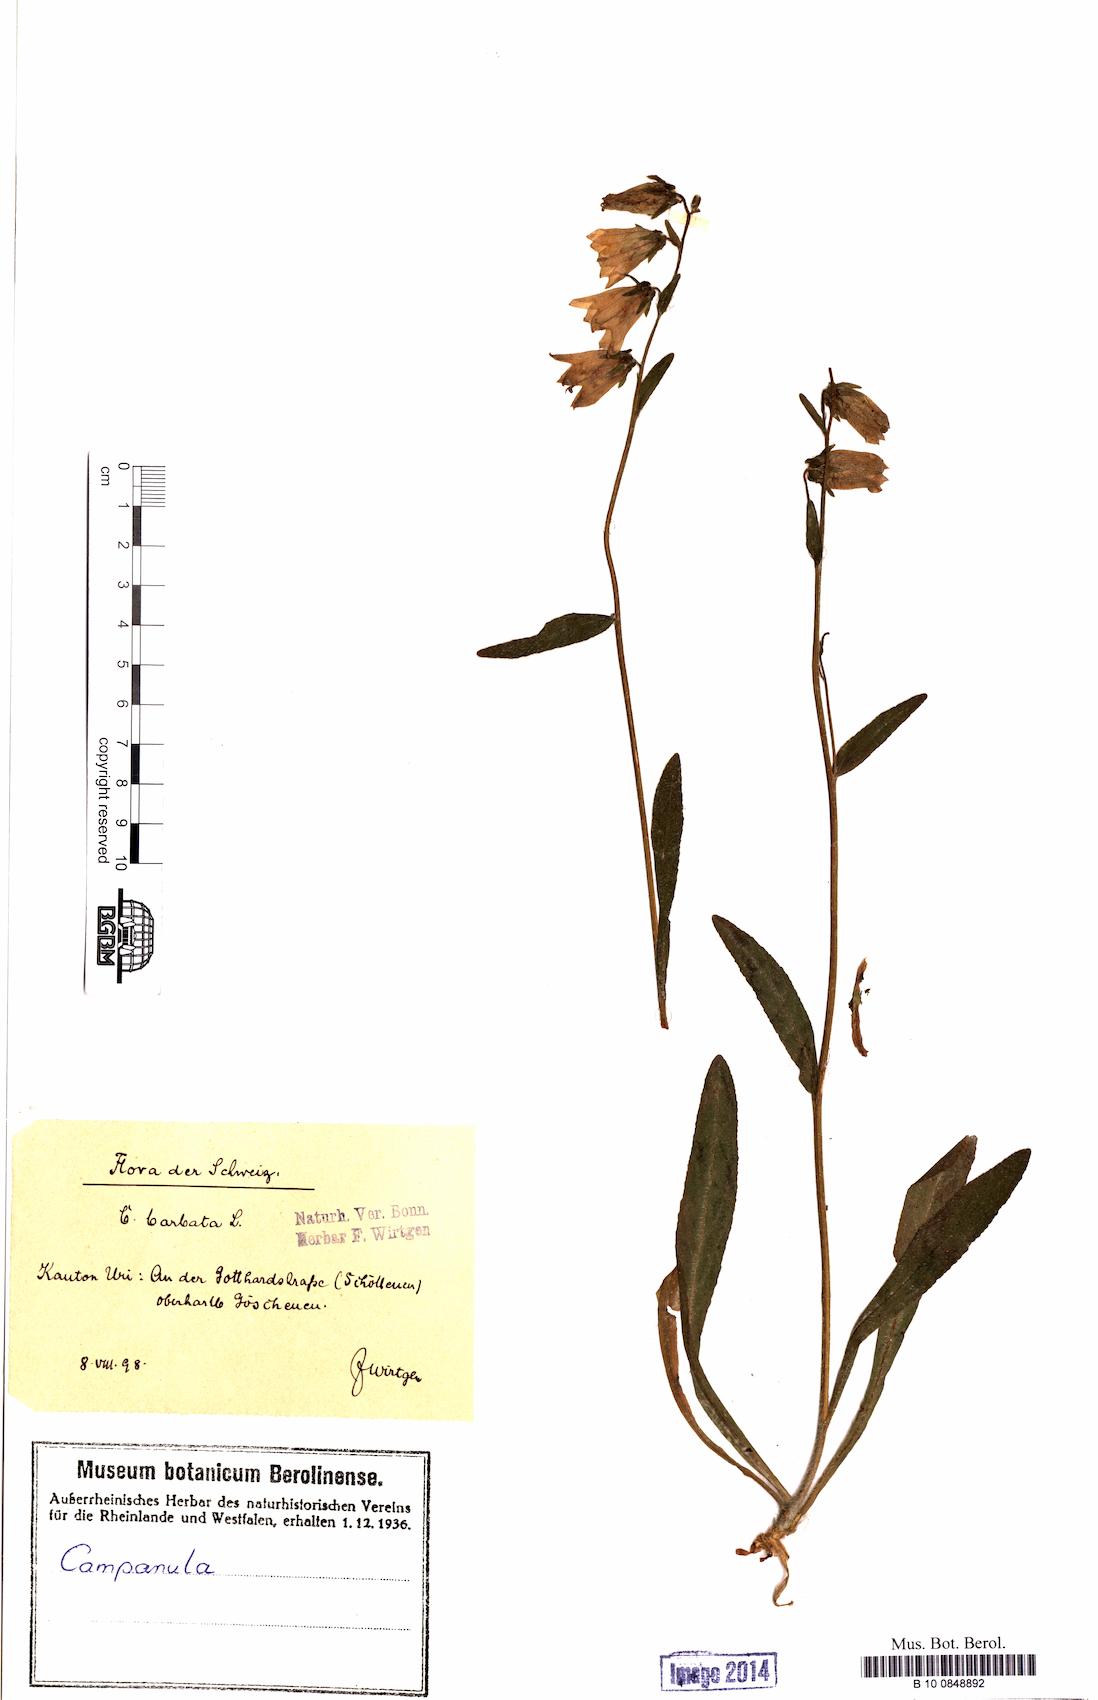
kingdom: Plantae
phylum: Tracheophyta
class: Magnoliopsida
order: Asterales
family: Campanulaceae
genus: Campanula
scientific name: Campanula barbata
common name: Bearded bellflower
